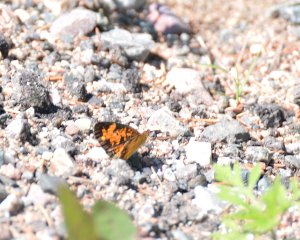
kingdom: Animalia
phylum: Arthropoda
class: Insecta
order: Lepidoptera
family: Nymphalidae
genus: Phyciodes
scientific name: Phyciodes tharos
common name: Northern Crescent
